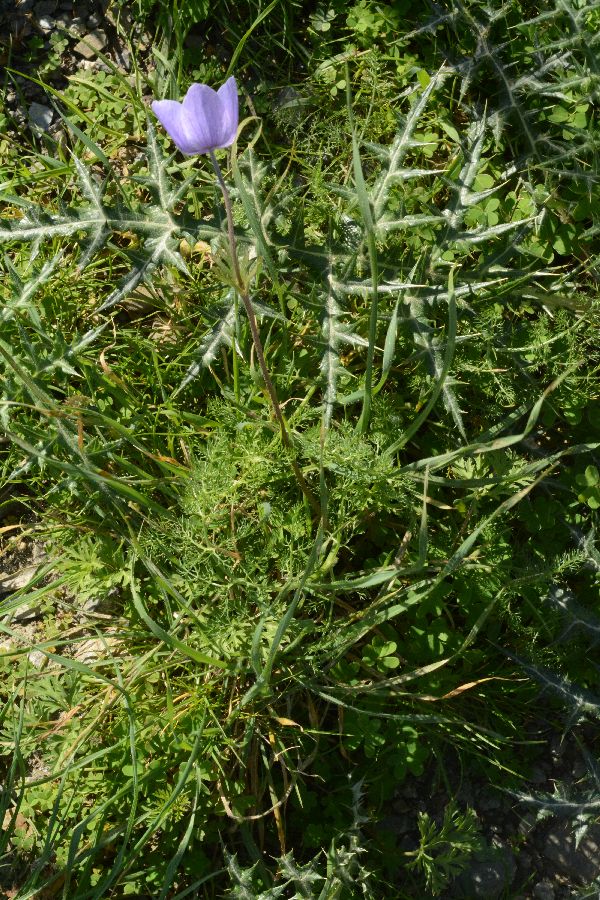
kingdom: Plantae
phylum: Tracheophyta
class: Magnoliopsida
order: Ranunculales
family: Ranunculaceae
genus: Anemone
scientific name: Anemone coronaria
